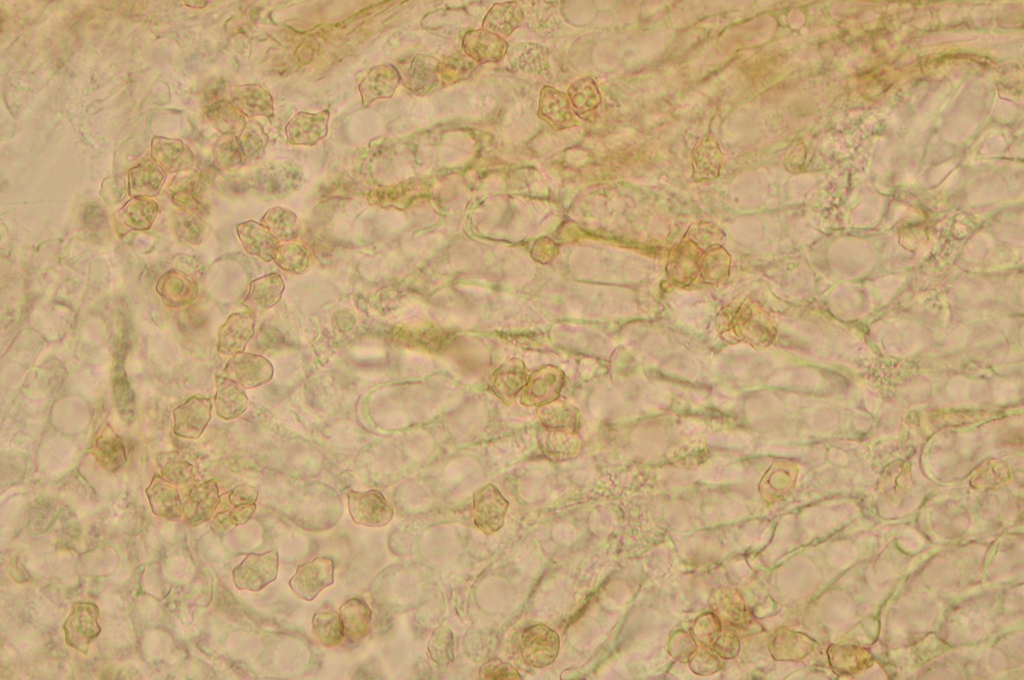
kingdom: Fungi
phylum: Basidiomycota
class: Agaricomycetes
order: Agaricales
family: Entolomataceae
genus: Entoloma
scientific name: Entoloma araneosum
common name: spindelvævs-rødblad
